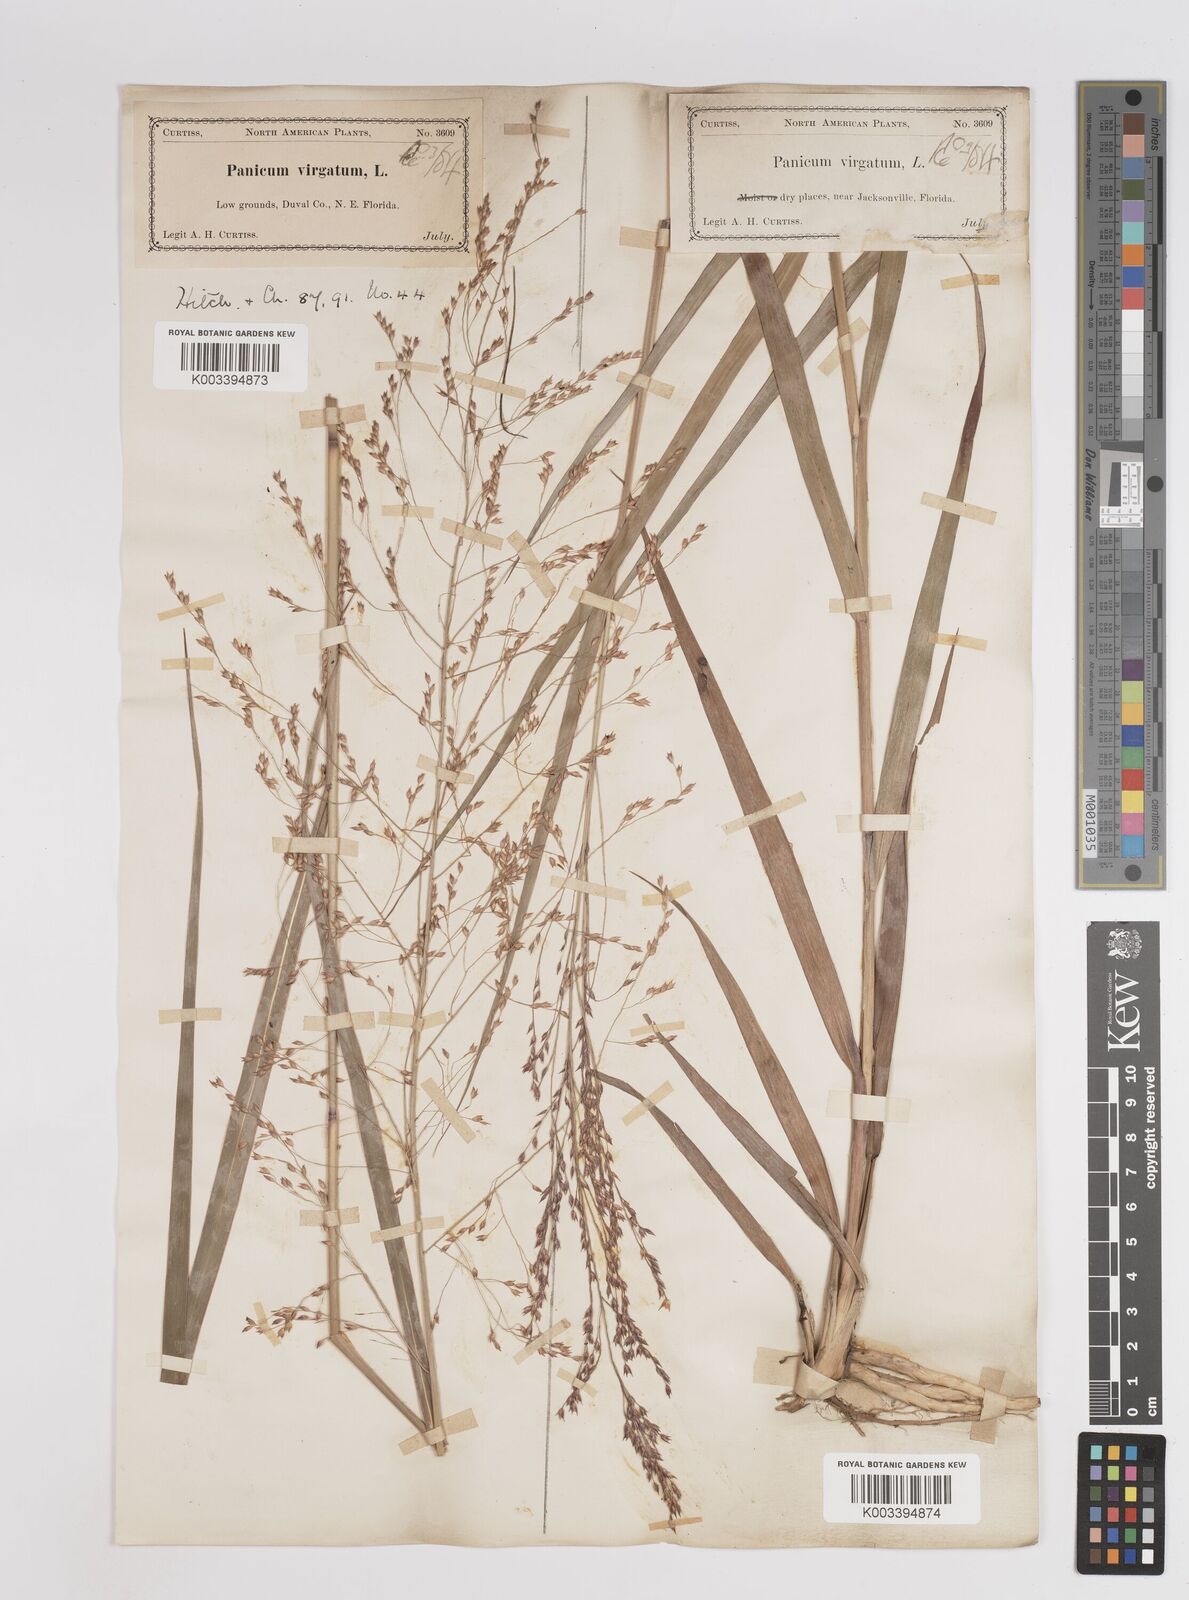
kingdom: Plantae
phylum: Tracheophyta
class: Liliopsida
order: Poales
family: Poaceae
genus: Panicum
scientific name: Panicum virgatum
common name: Switchgrass
